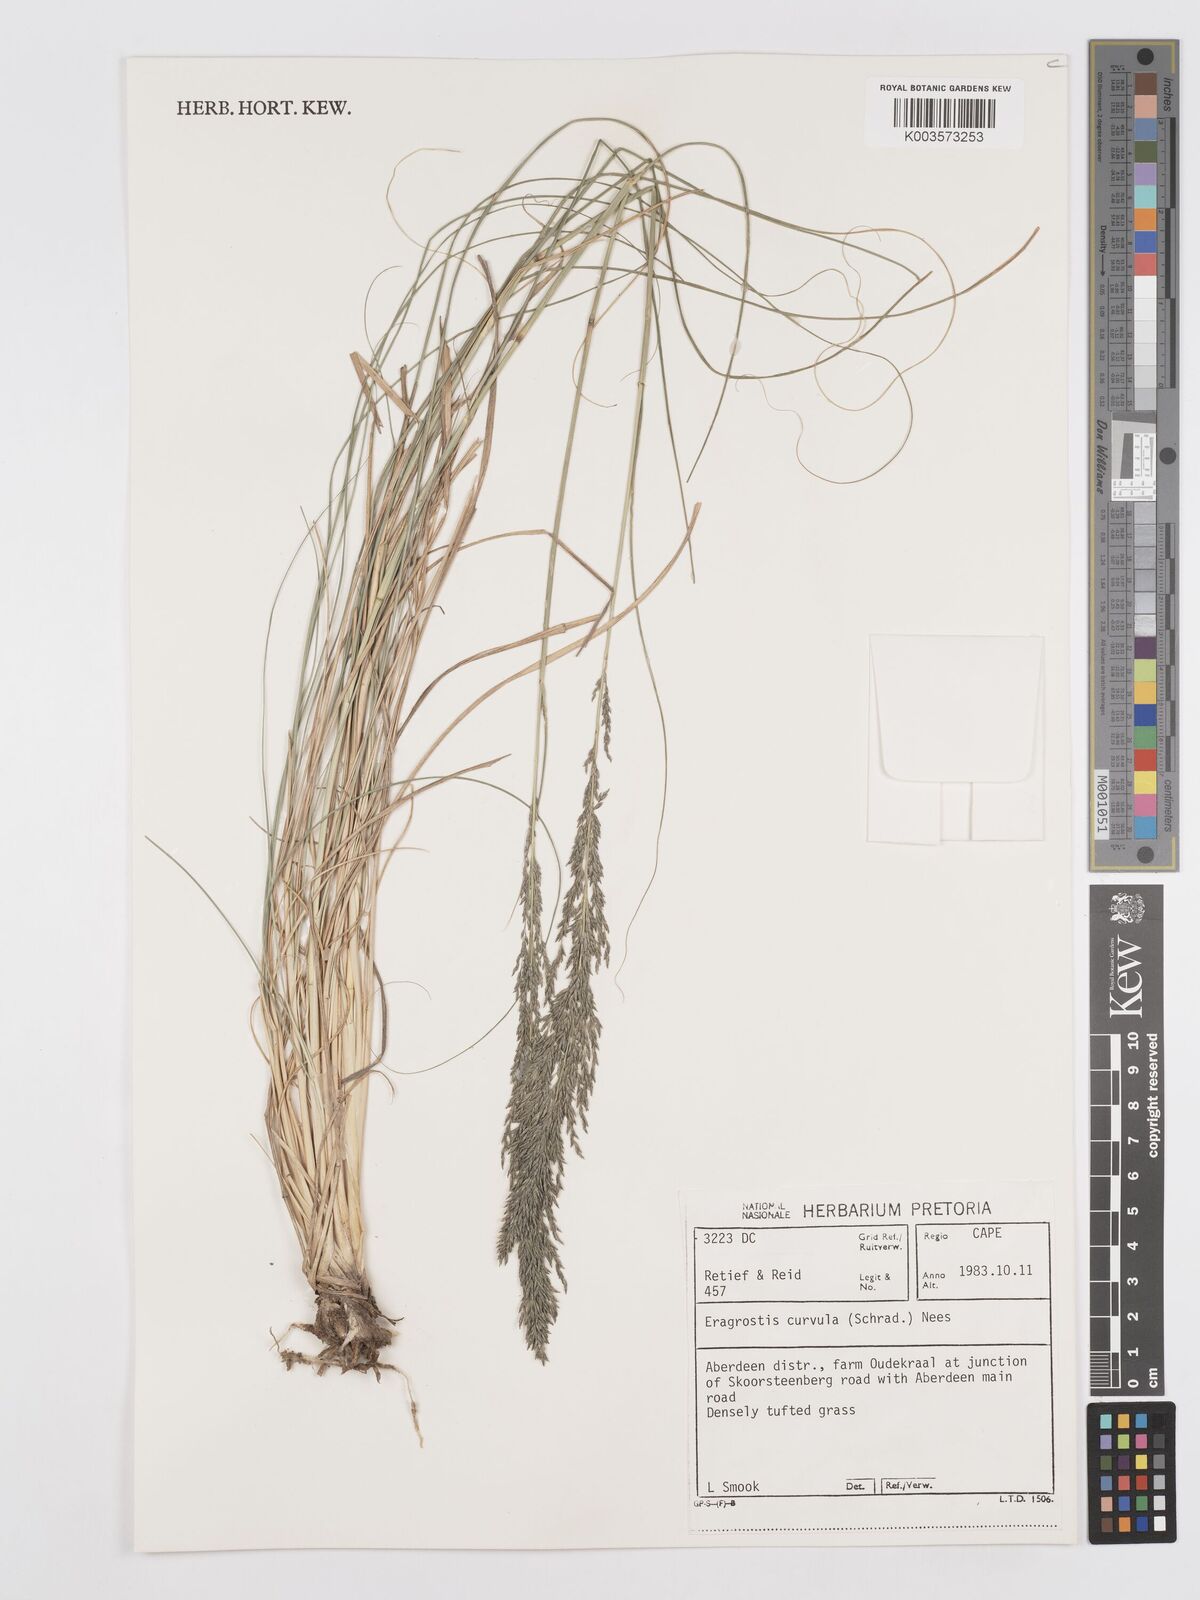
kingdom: Plantae
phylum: Tracheophyta
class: Liliopsida
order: Poales
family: Poaceae
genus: Eragrostis
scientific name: Eragrostis curvula
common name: African love-grass
